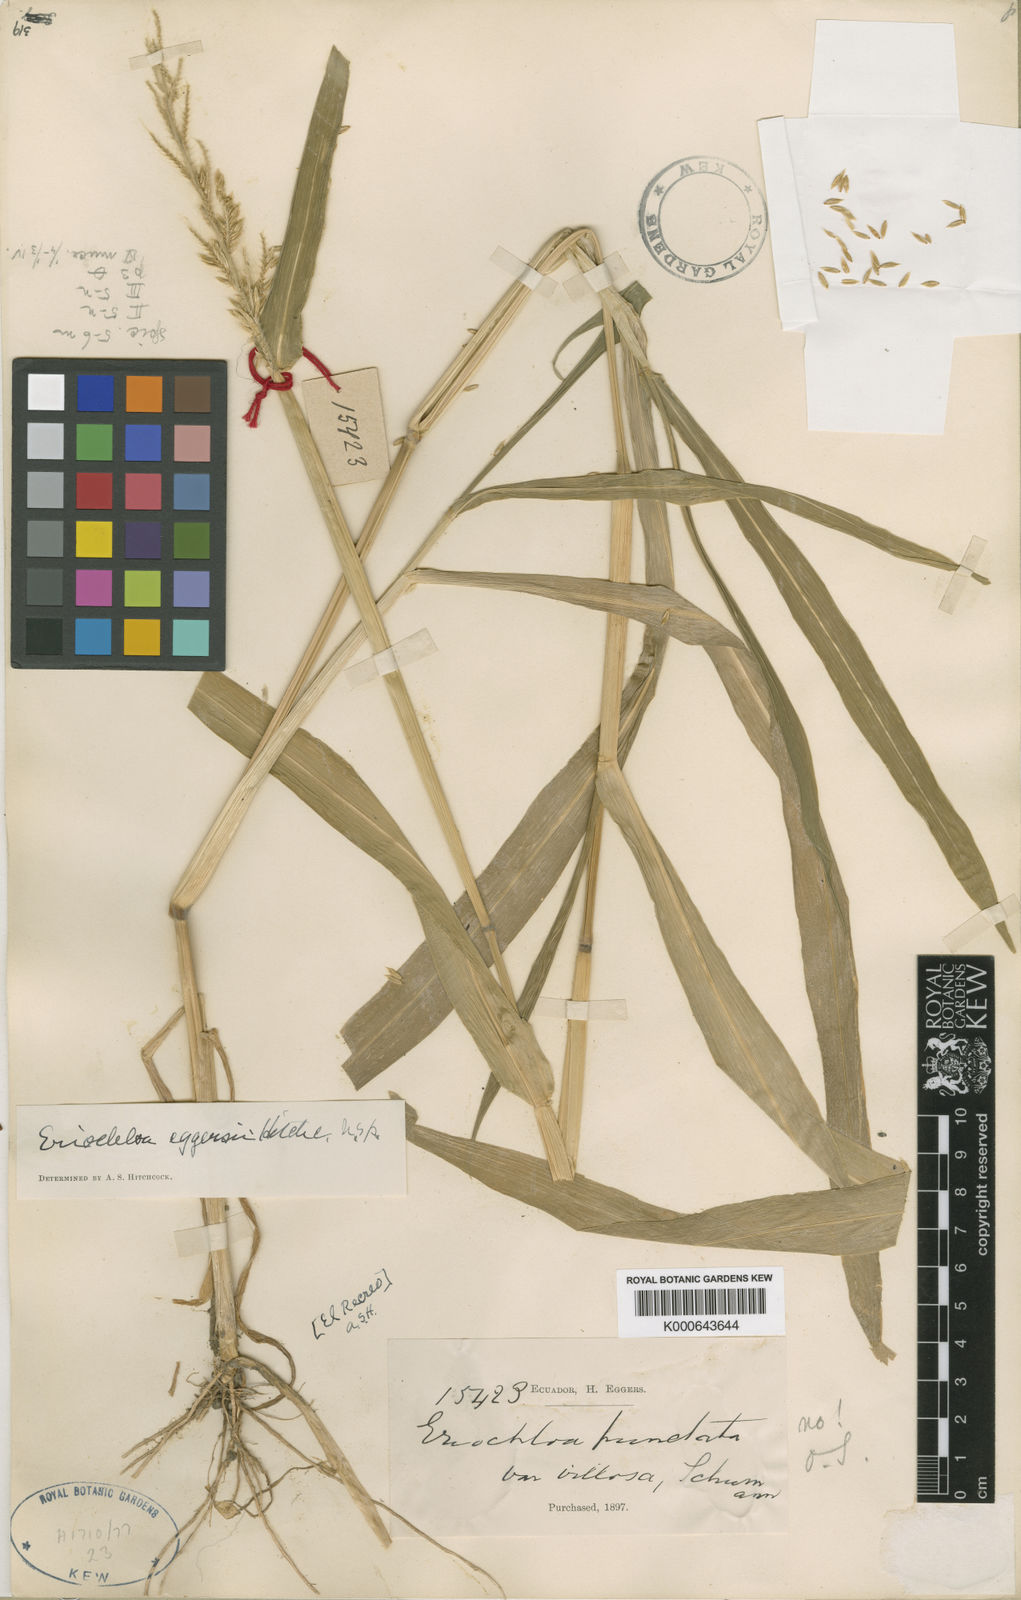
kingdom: Plantae
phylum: Tracheophyta
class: Liliopsida
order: Poales
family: Poaceae
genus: Eriochloa
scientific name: Eriochloa pacifica
